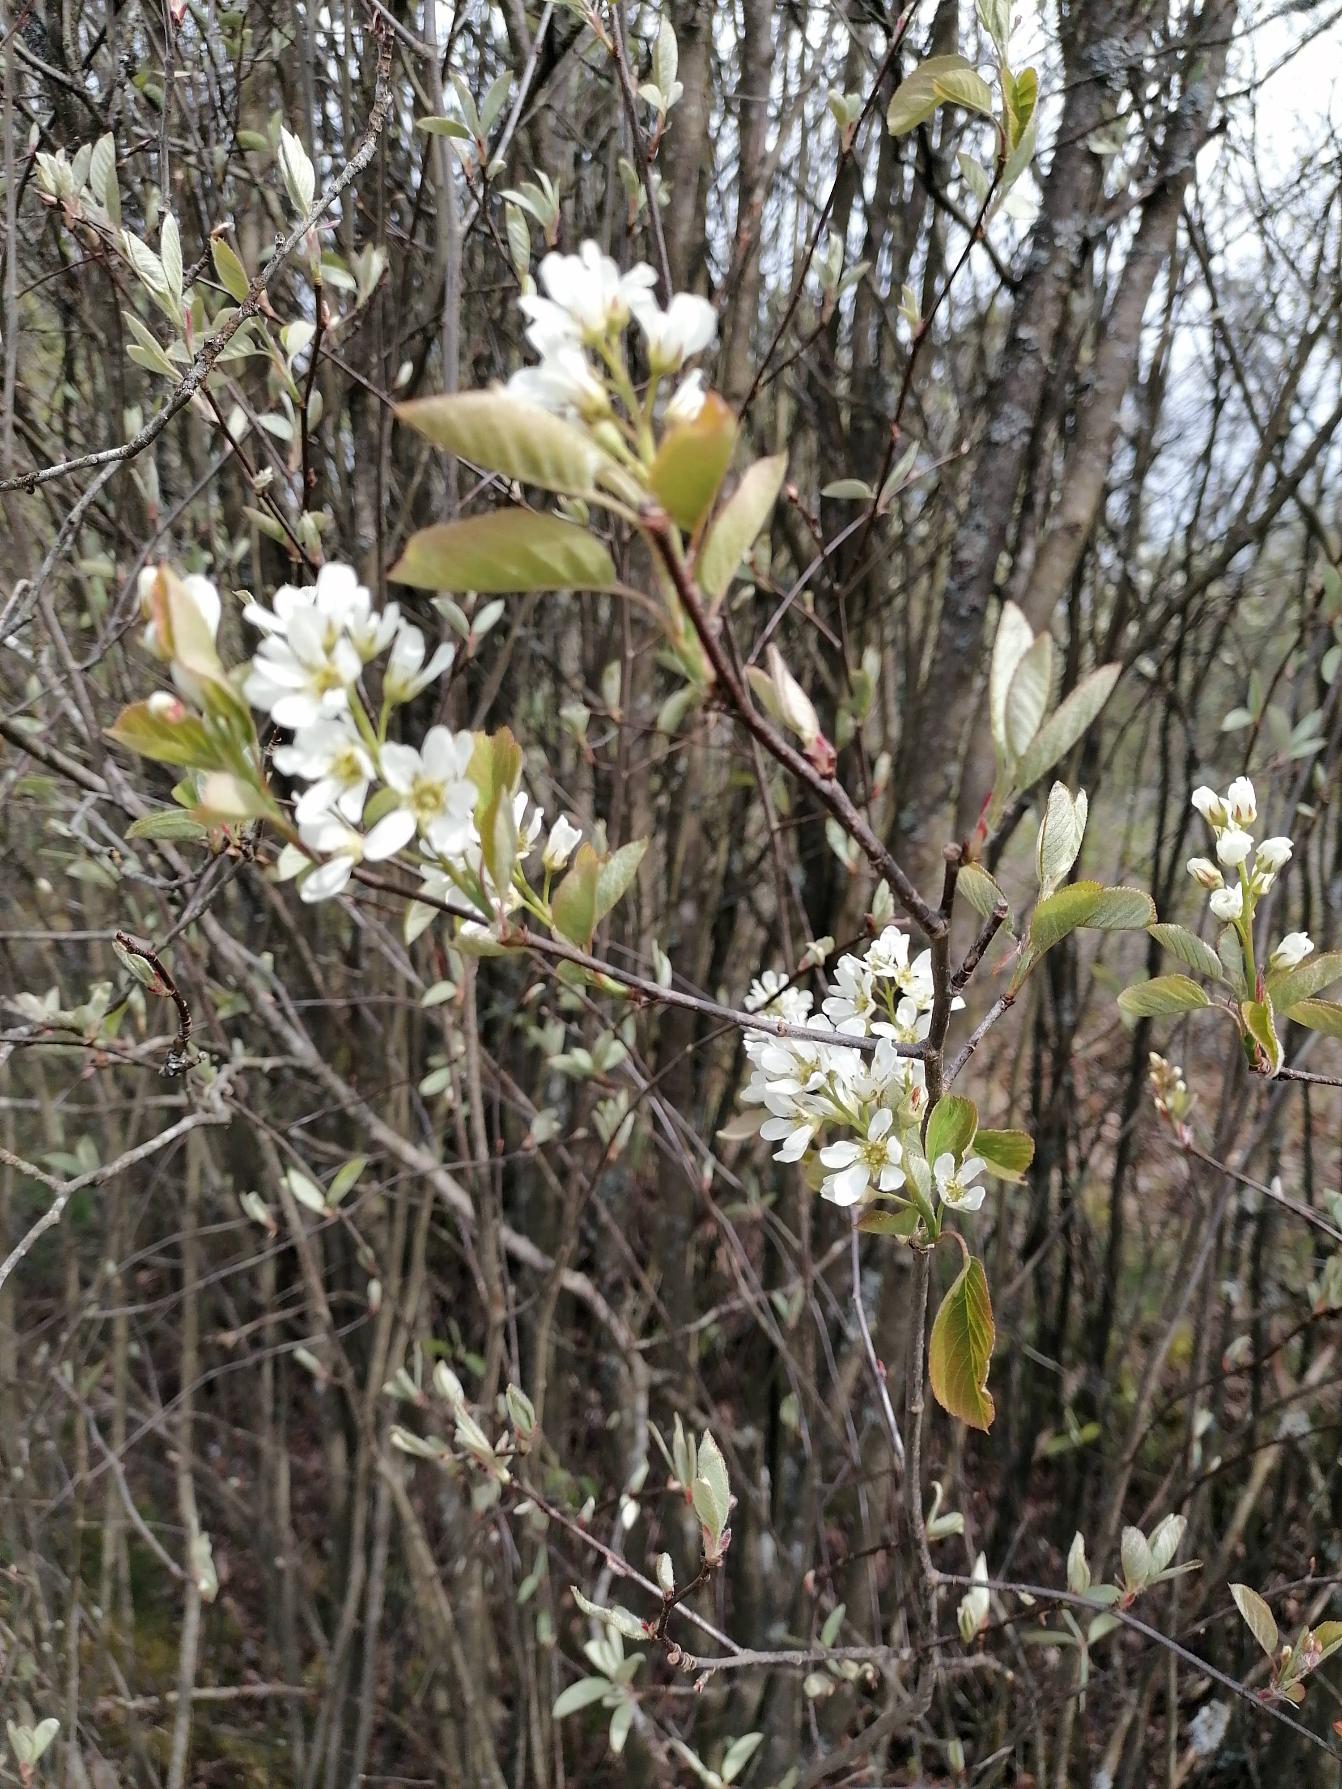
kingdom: Plantae
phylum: Tracheophyta
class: Magnoliopsida
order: Rosales
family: Rosaceae
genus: Amelanchier
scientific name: Amelanchier lamarckii
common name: Bærmispel
